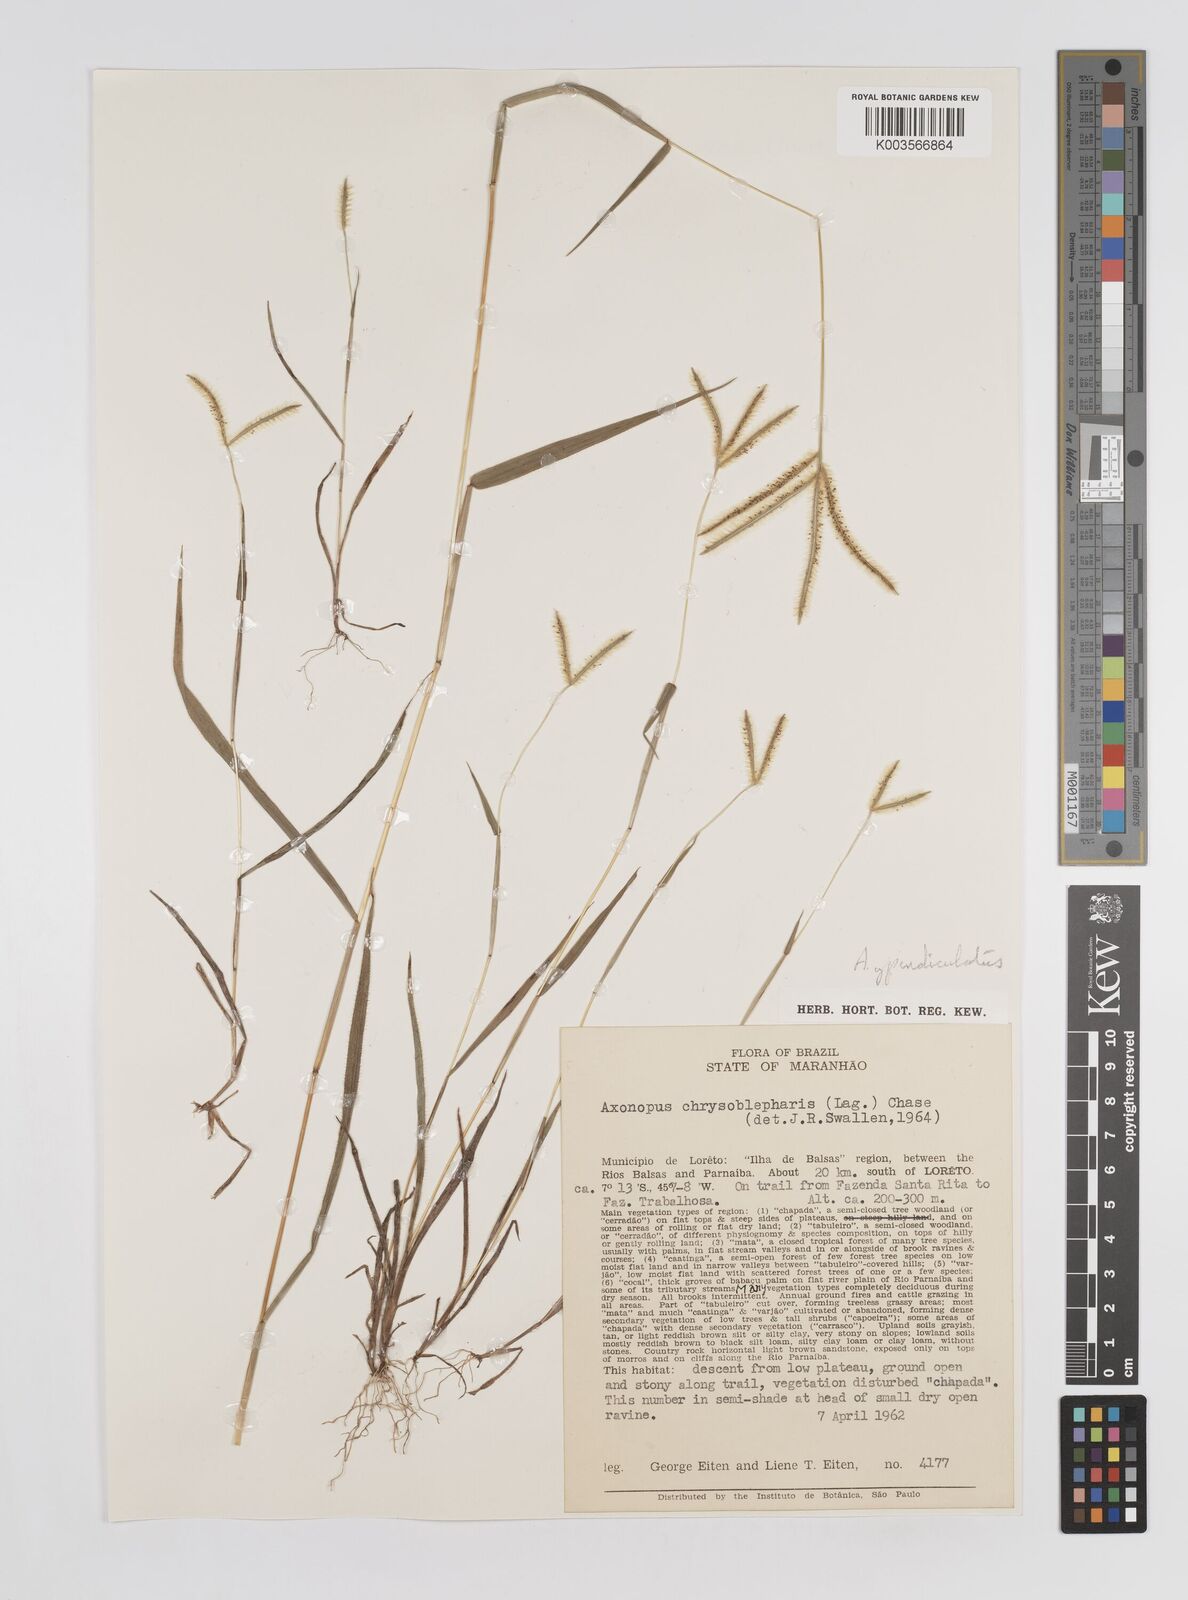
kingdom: Plantae
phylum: Tracheophyta
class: Liliopsida
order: Poales
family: Poaceae
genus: Axonopus
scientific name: Axonopus chrysoblepharis
